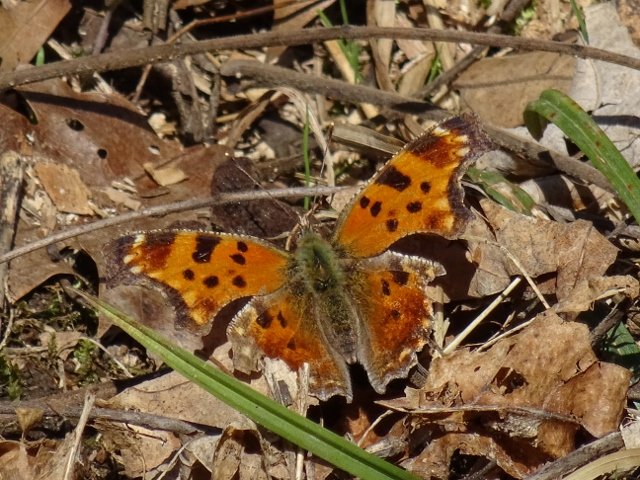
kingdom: Animalia
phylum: Arthropoda
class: Insecta
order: Lepidoptera
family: Nymphalidae
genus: Polygonia
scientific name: Polygonia comma
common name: Eastern Comma
